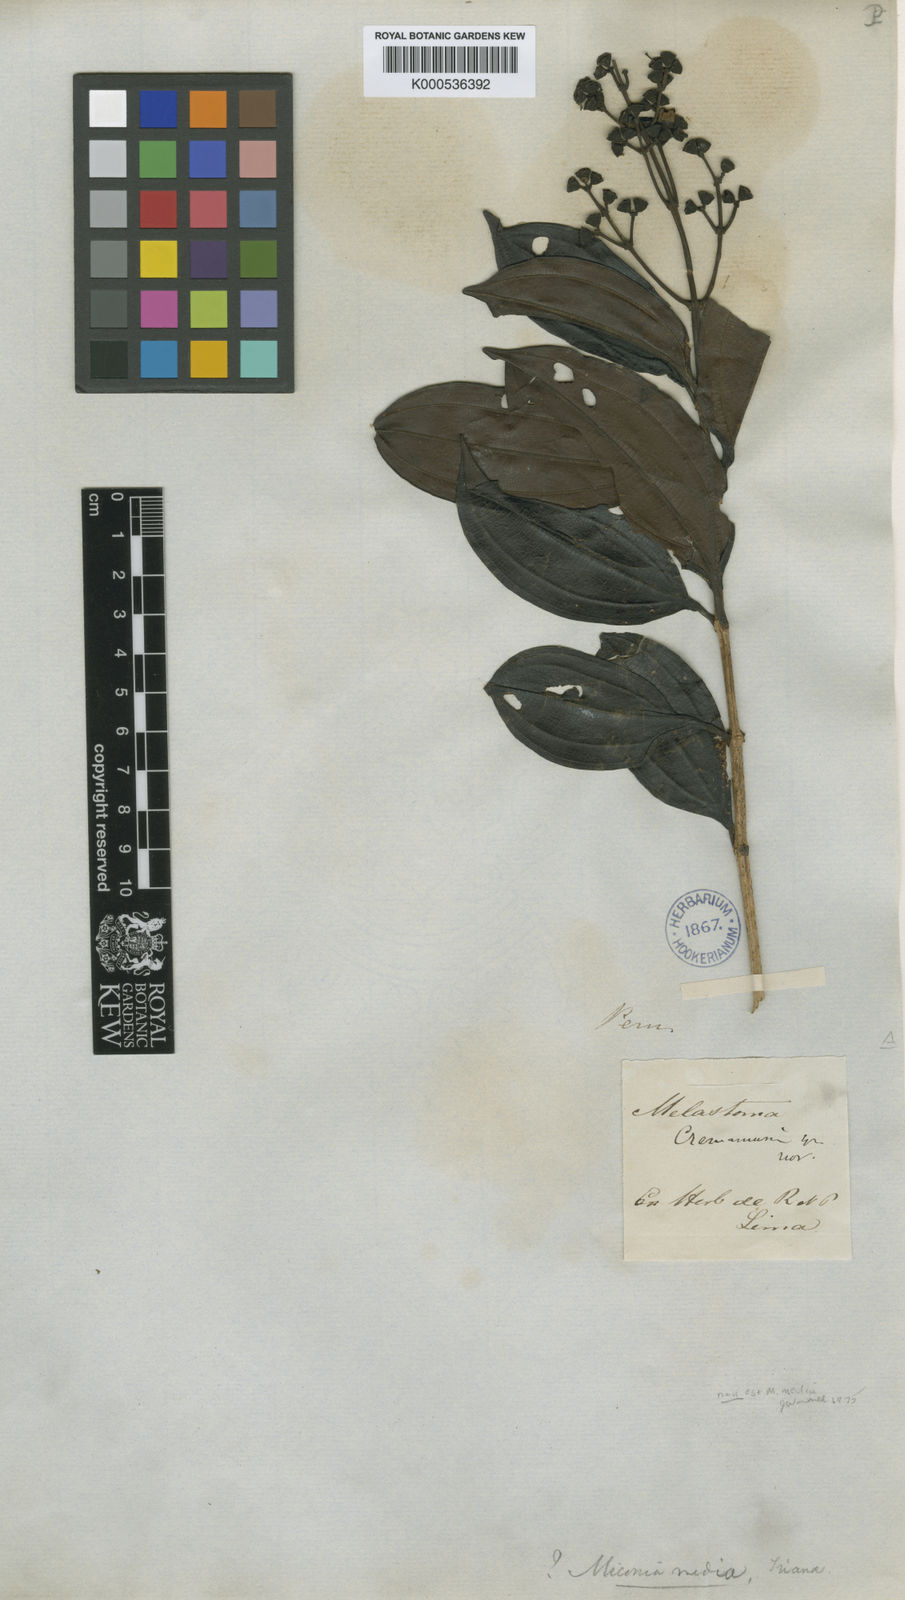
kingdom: Plantae
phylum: Tracheophyta
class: Magnoliopsida
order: Myrtales
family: Melastomataceae
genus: Miconia
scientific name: Miconia
